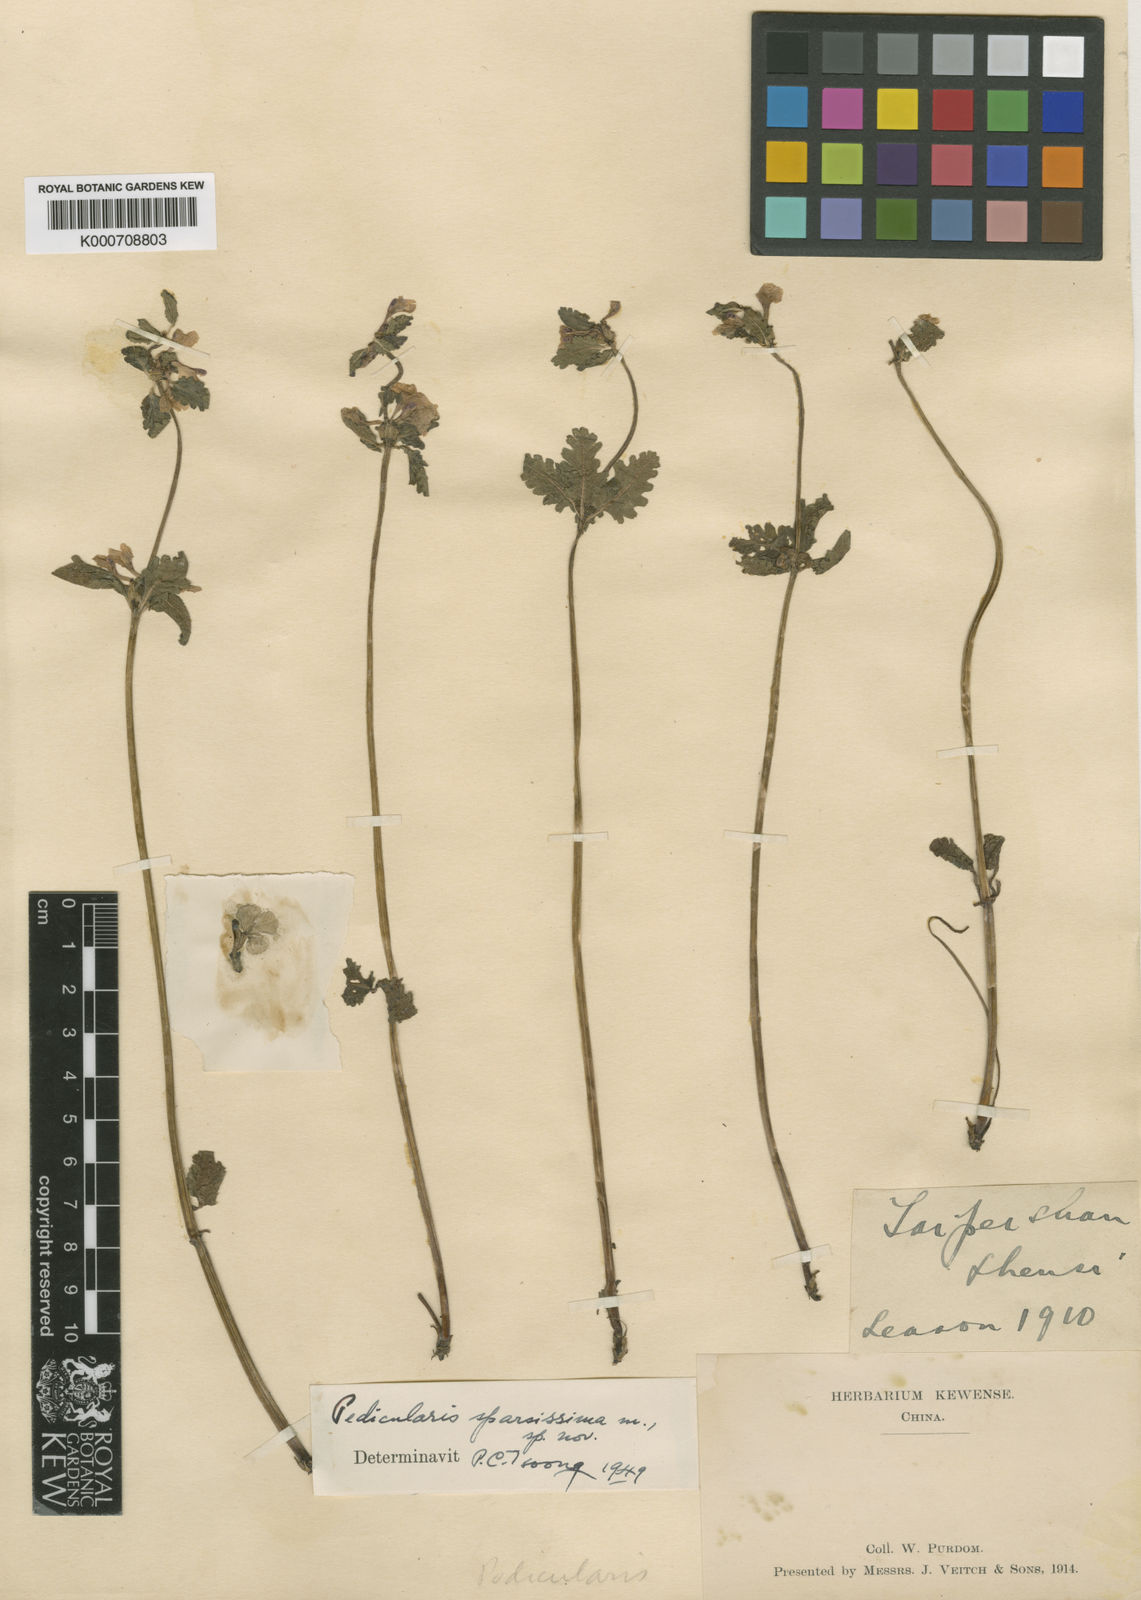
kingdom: Plantae
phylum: Tracheophyta
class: Magnoliopsida
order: Lamiales
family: Orobanchaceae
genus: Pedicularis
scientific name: Pedicularis
